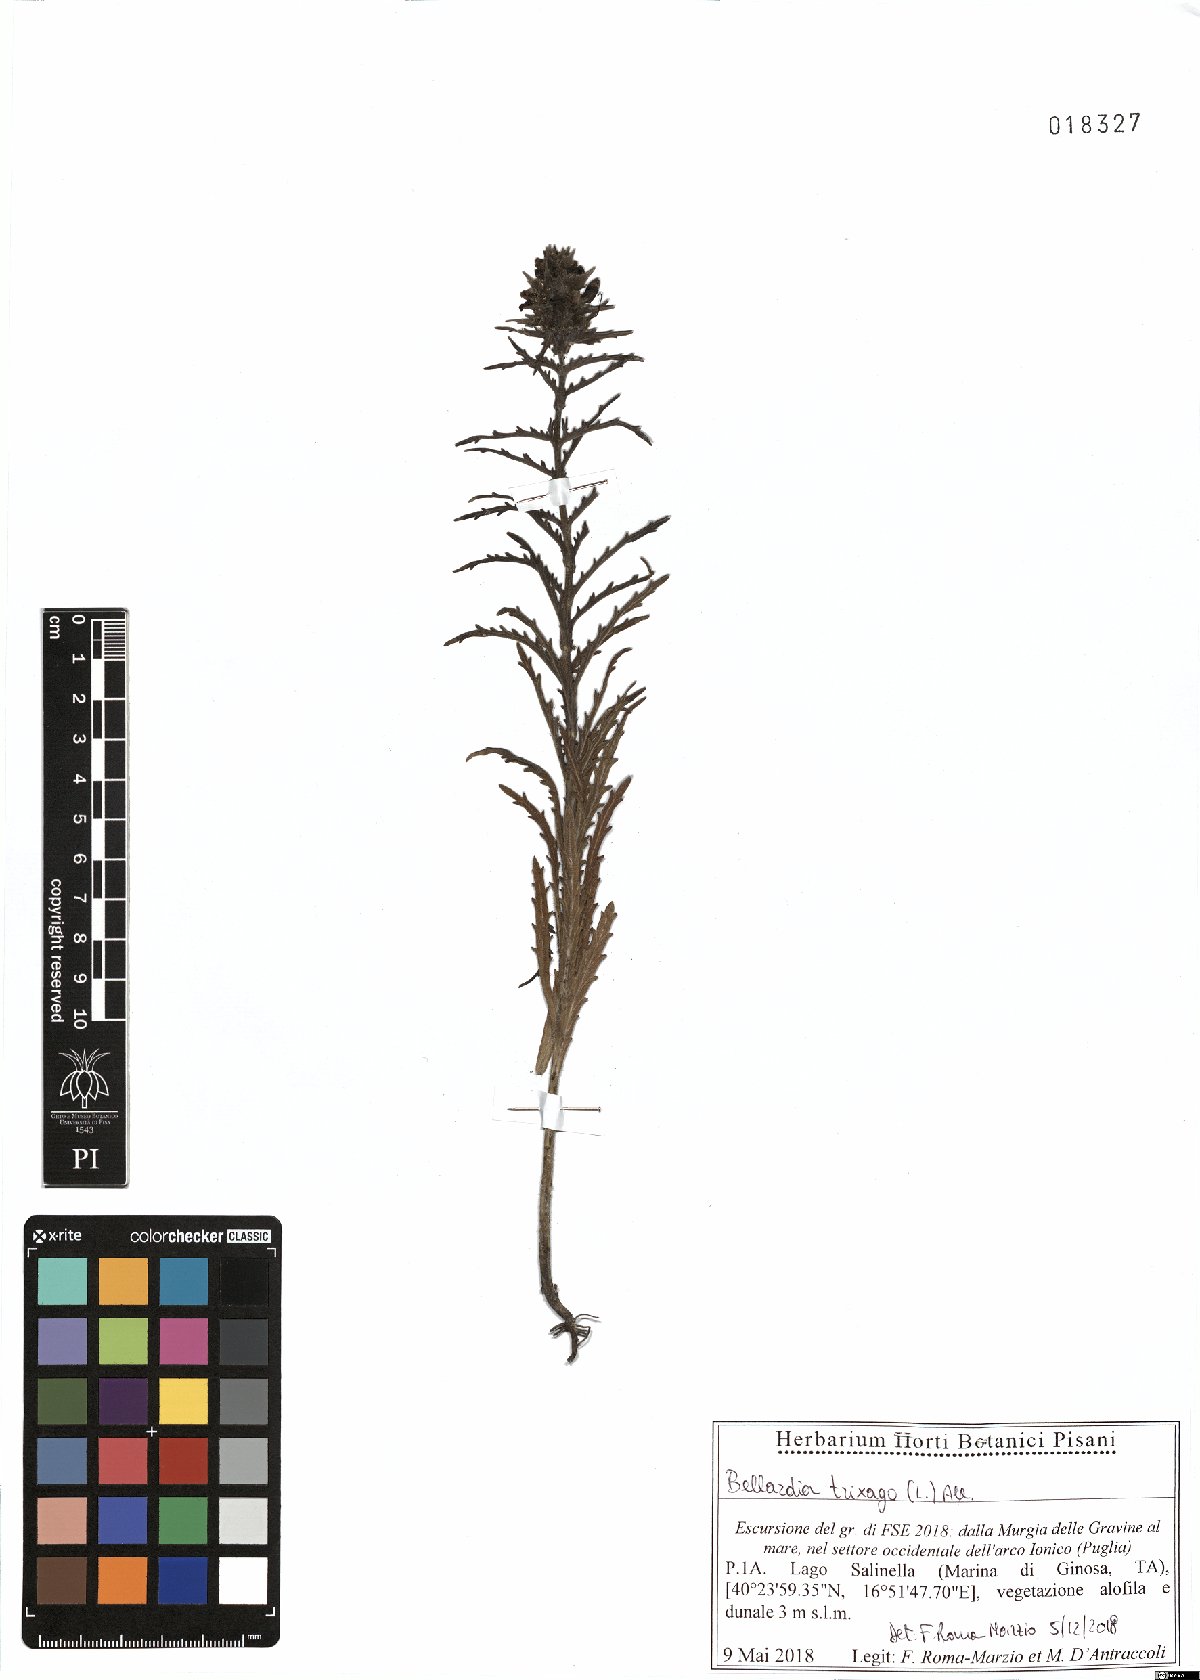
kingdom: Plantae
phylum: Tracheophyta
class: Magnoliopsida
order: Lamiales
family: Orobanchaceae
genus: Bellardia
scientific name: Bellardia trixago
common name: Mediterranean lineseed
